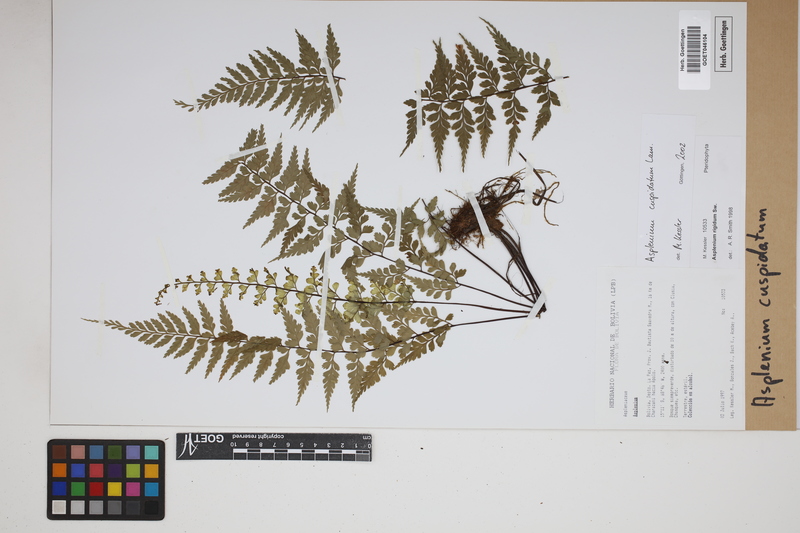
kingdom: Plantae
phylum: Tracheophyta
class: Polypodiopsida
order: Polypodiales
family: Aspleniaceae
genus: Asplenium
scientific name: Asplenium cuspidatum
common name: Eared spleenwort
